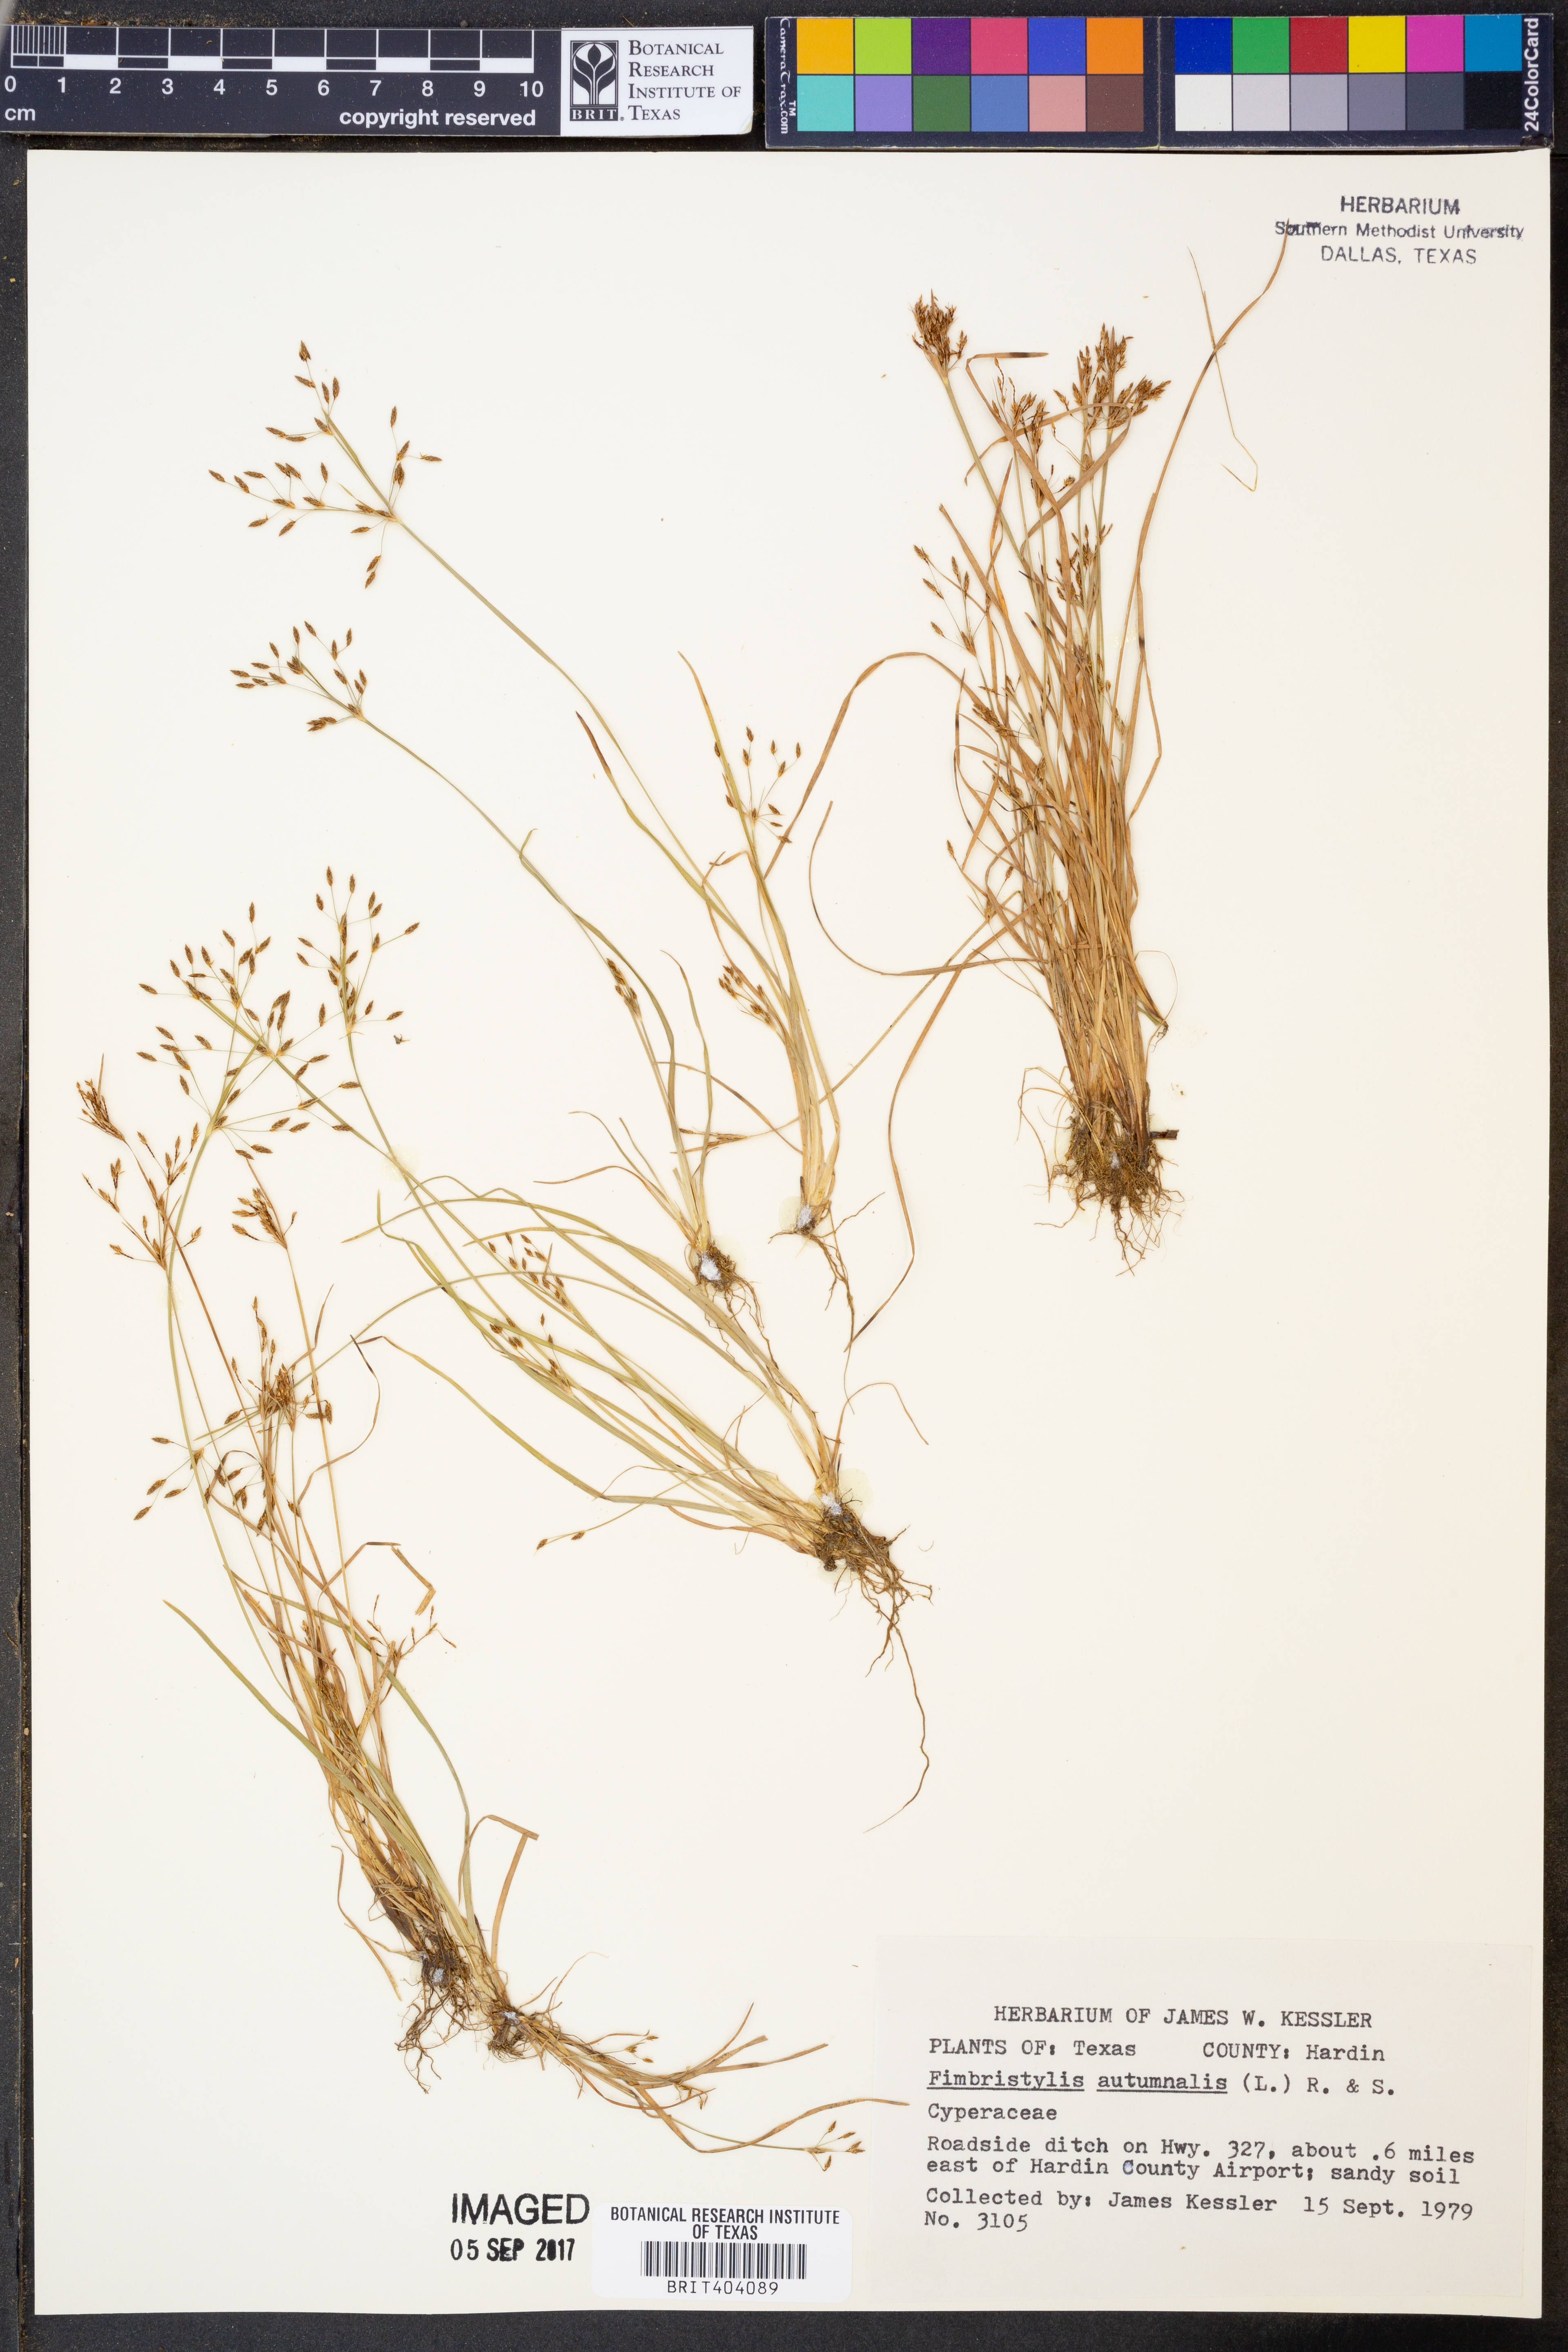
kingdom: Plantae
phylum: Tracheophyta
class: Liliopsida
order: Poales
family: Cyperaceae
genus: Fimbristylis
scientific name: Fimbristylis autumnalis
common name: Slender fimbristylis
